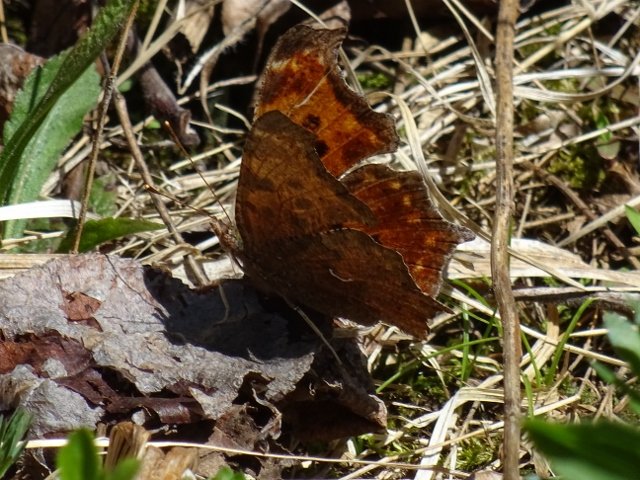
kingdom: Animalia
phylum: Arthropoda
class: Insecta
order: Lepidoptera
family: Nymphalidae
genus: Polygonia
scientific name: Polygonia comma
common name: Eastern Comma
